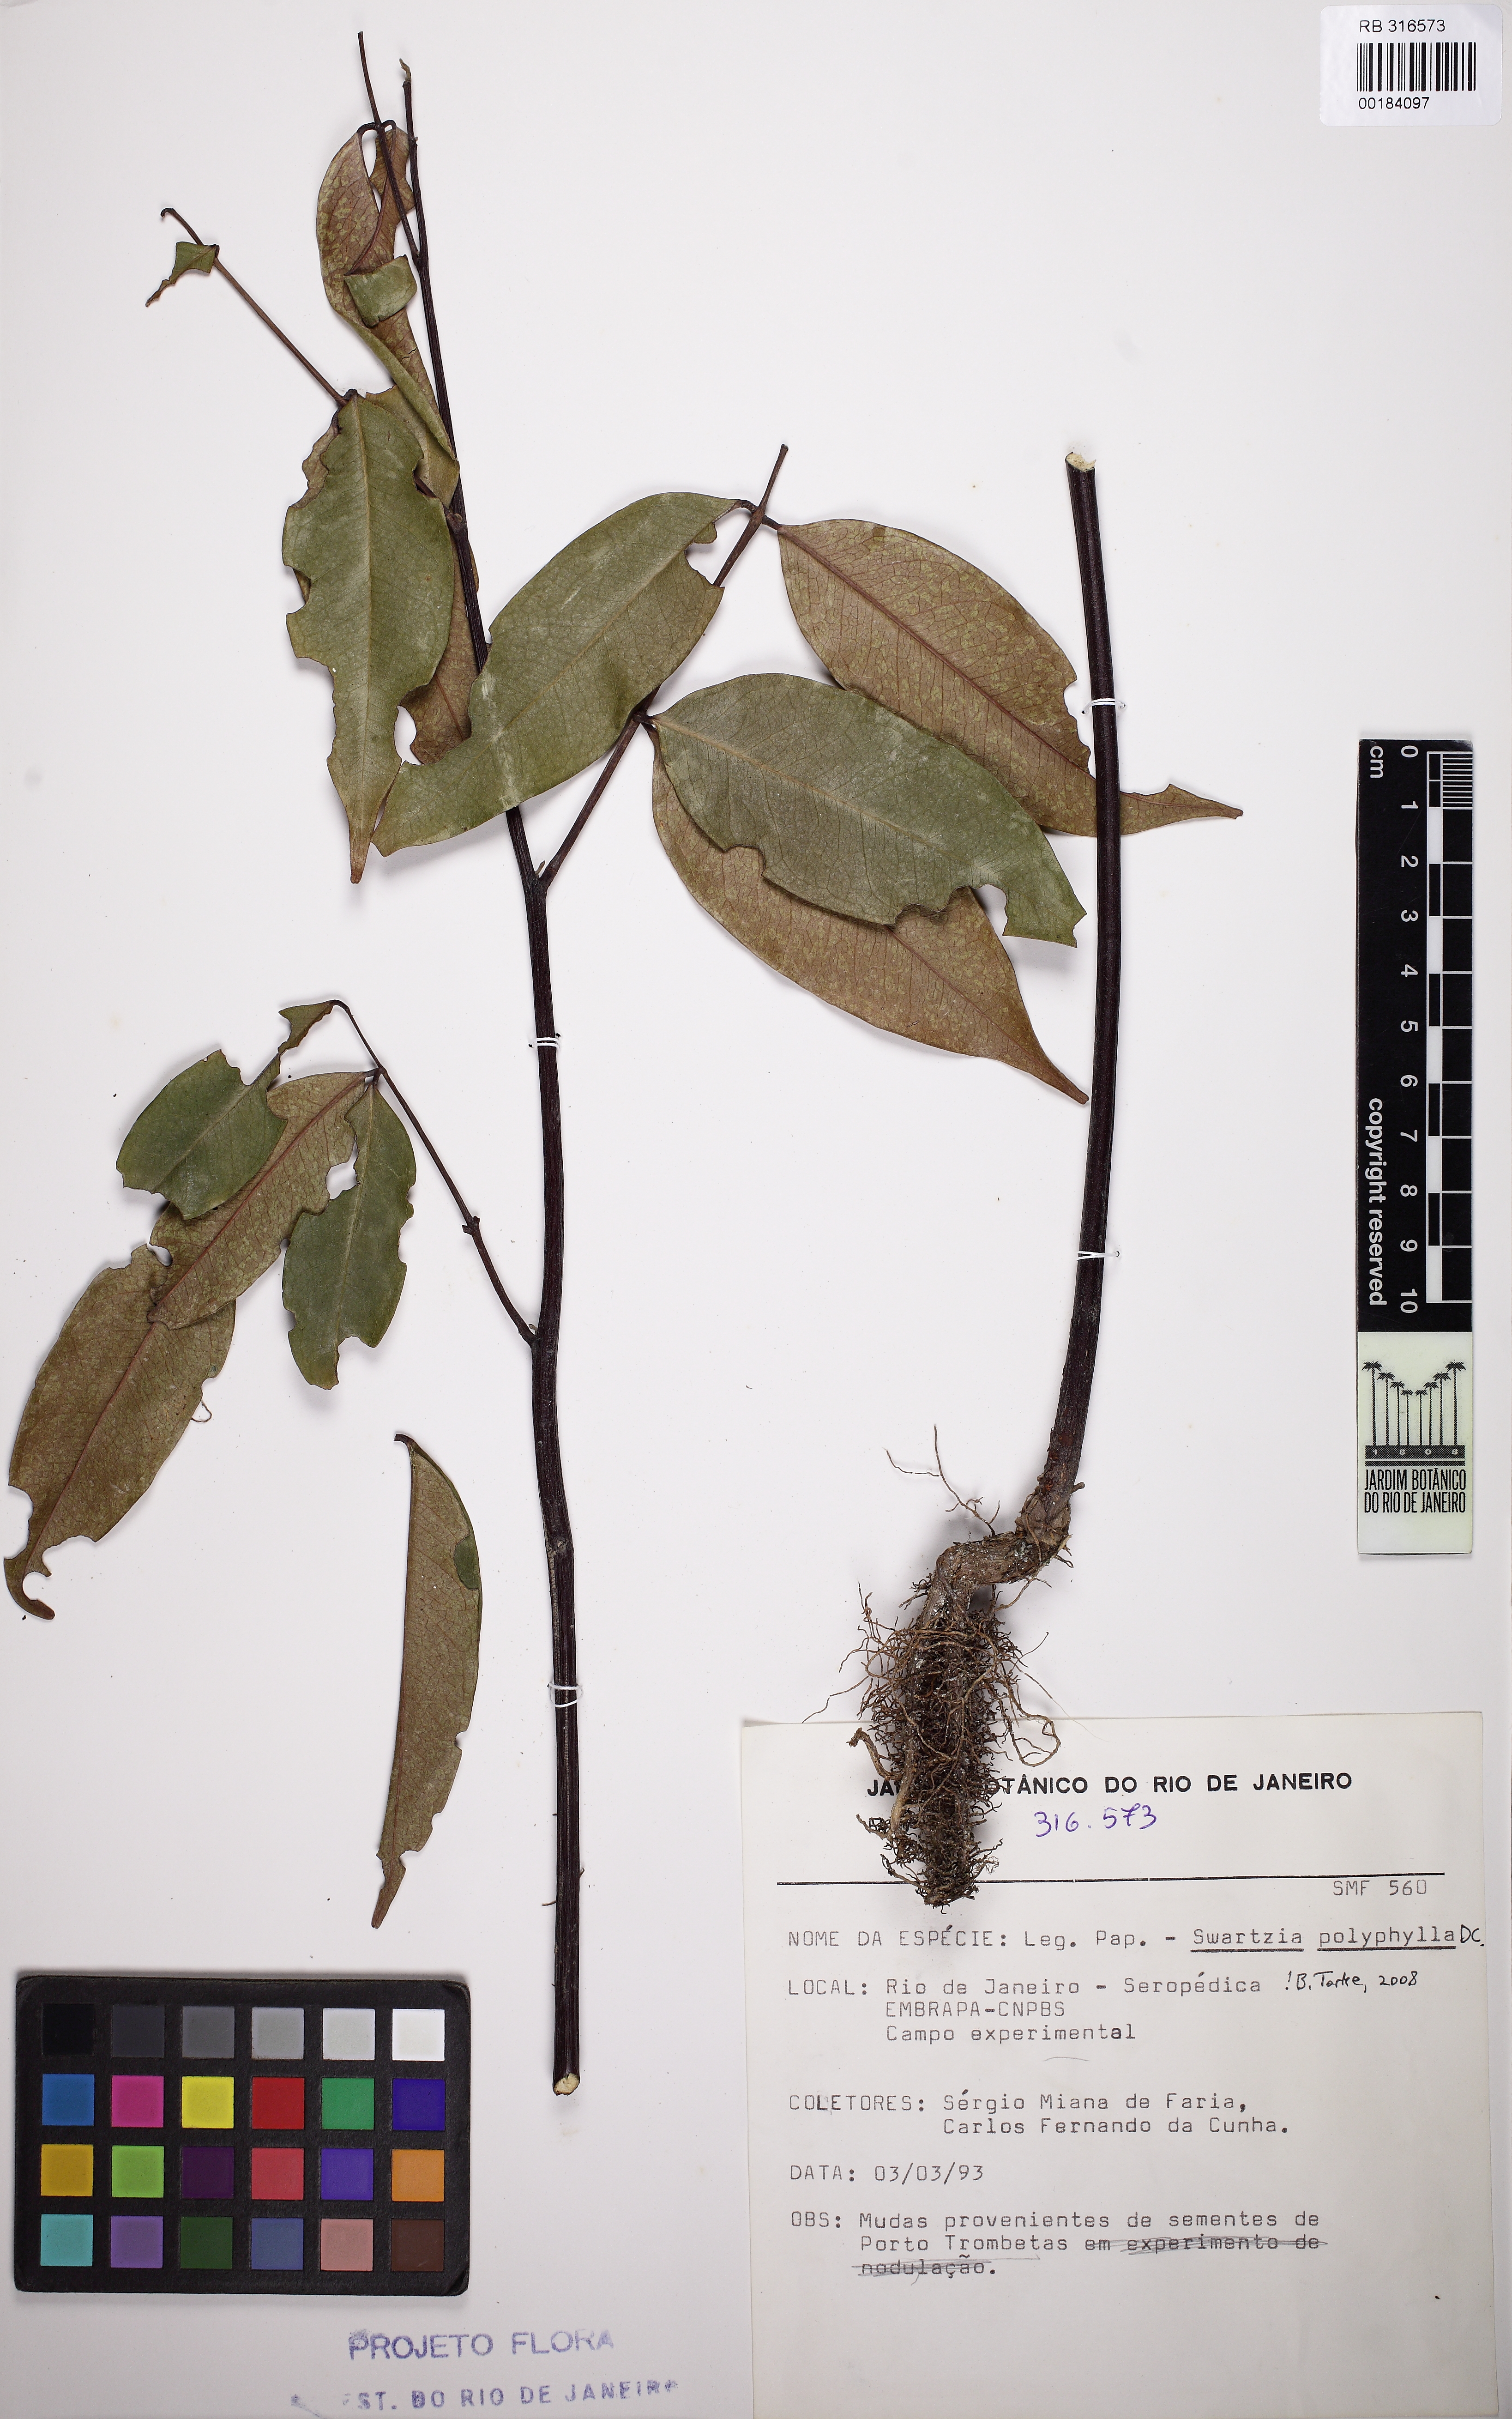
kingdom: Plantae
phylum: Tracheophyta
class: Magnoliopsida
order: Fabales
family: Fabaceae
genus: Swartzia
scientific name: Swartzia polyphylla
